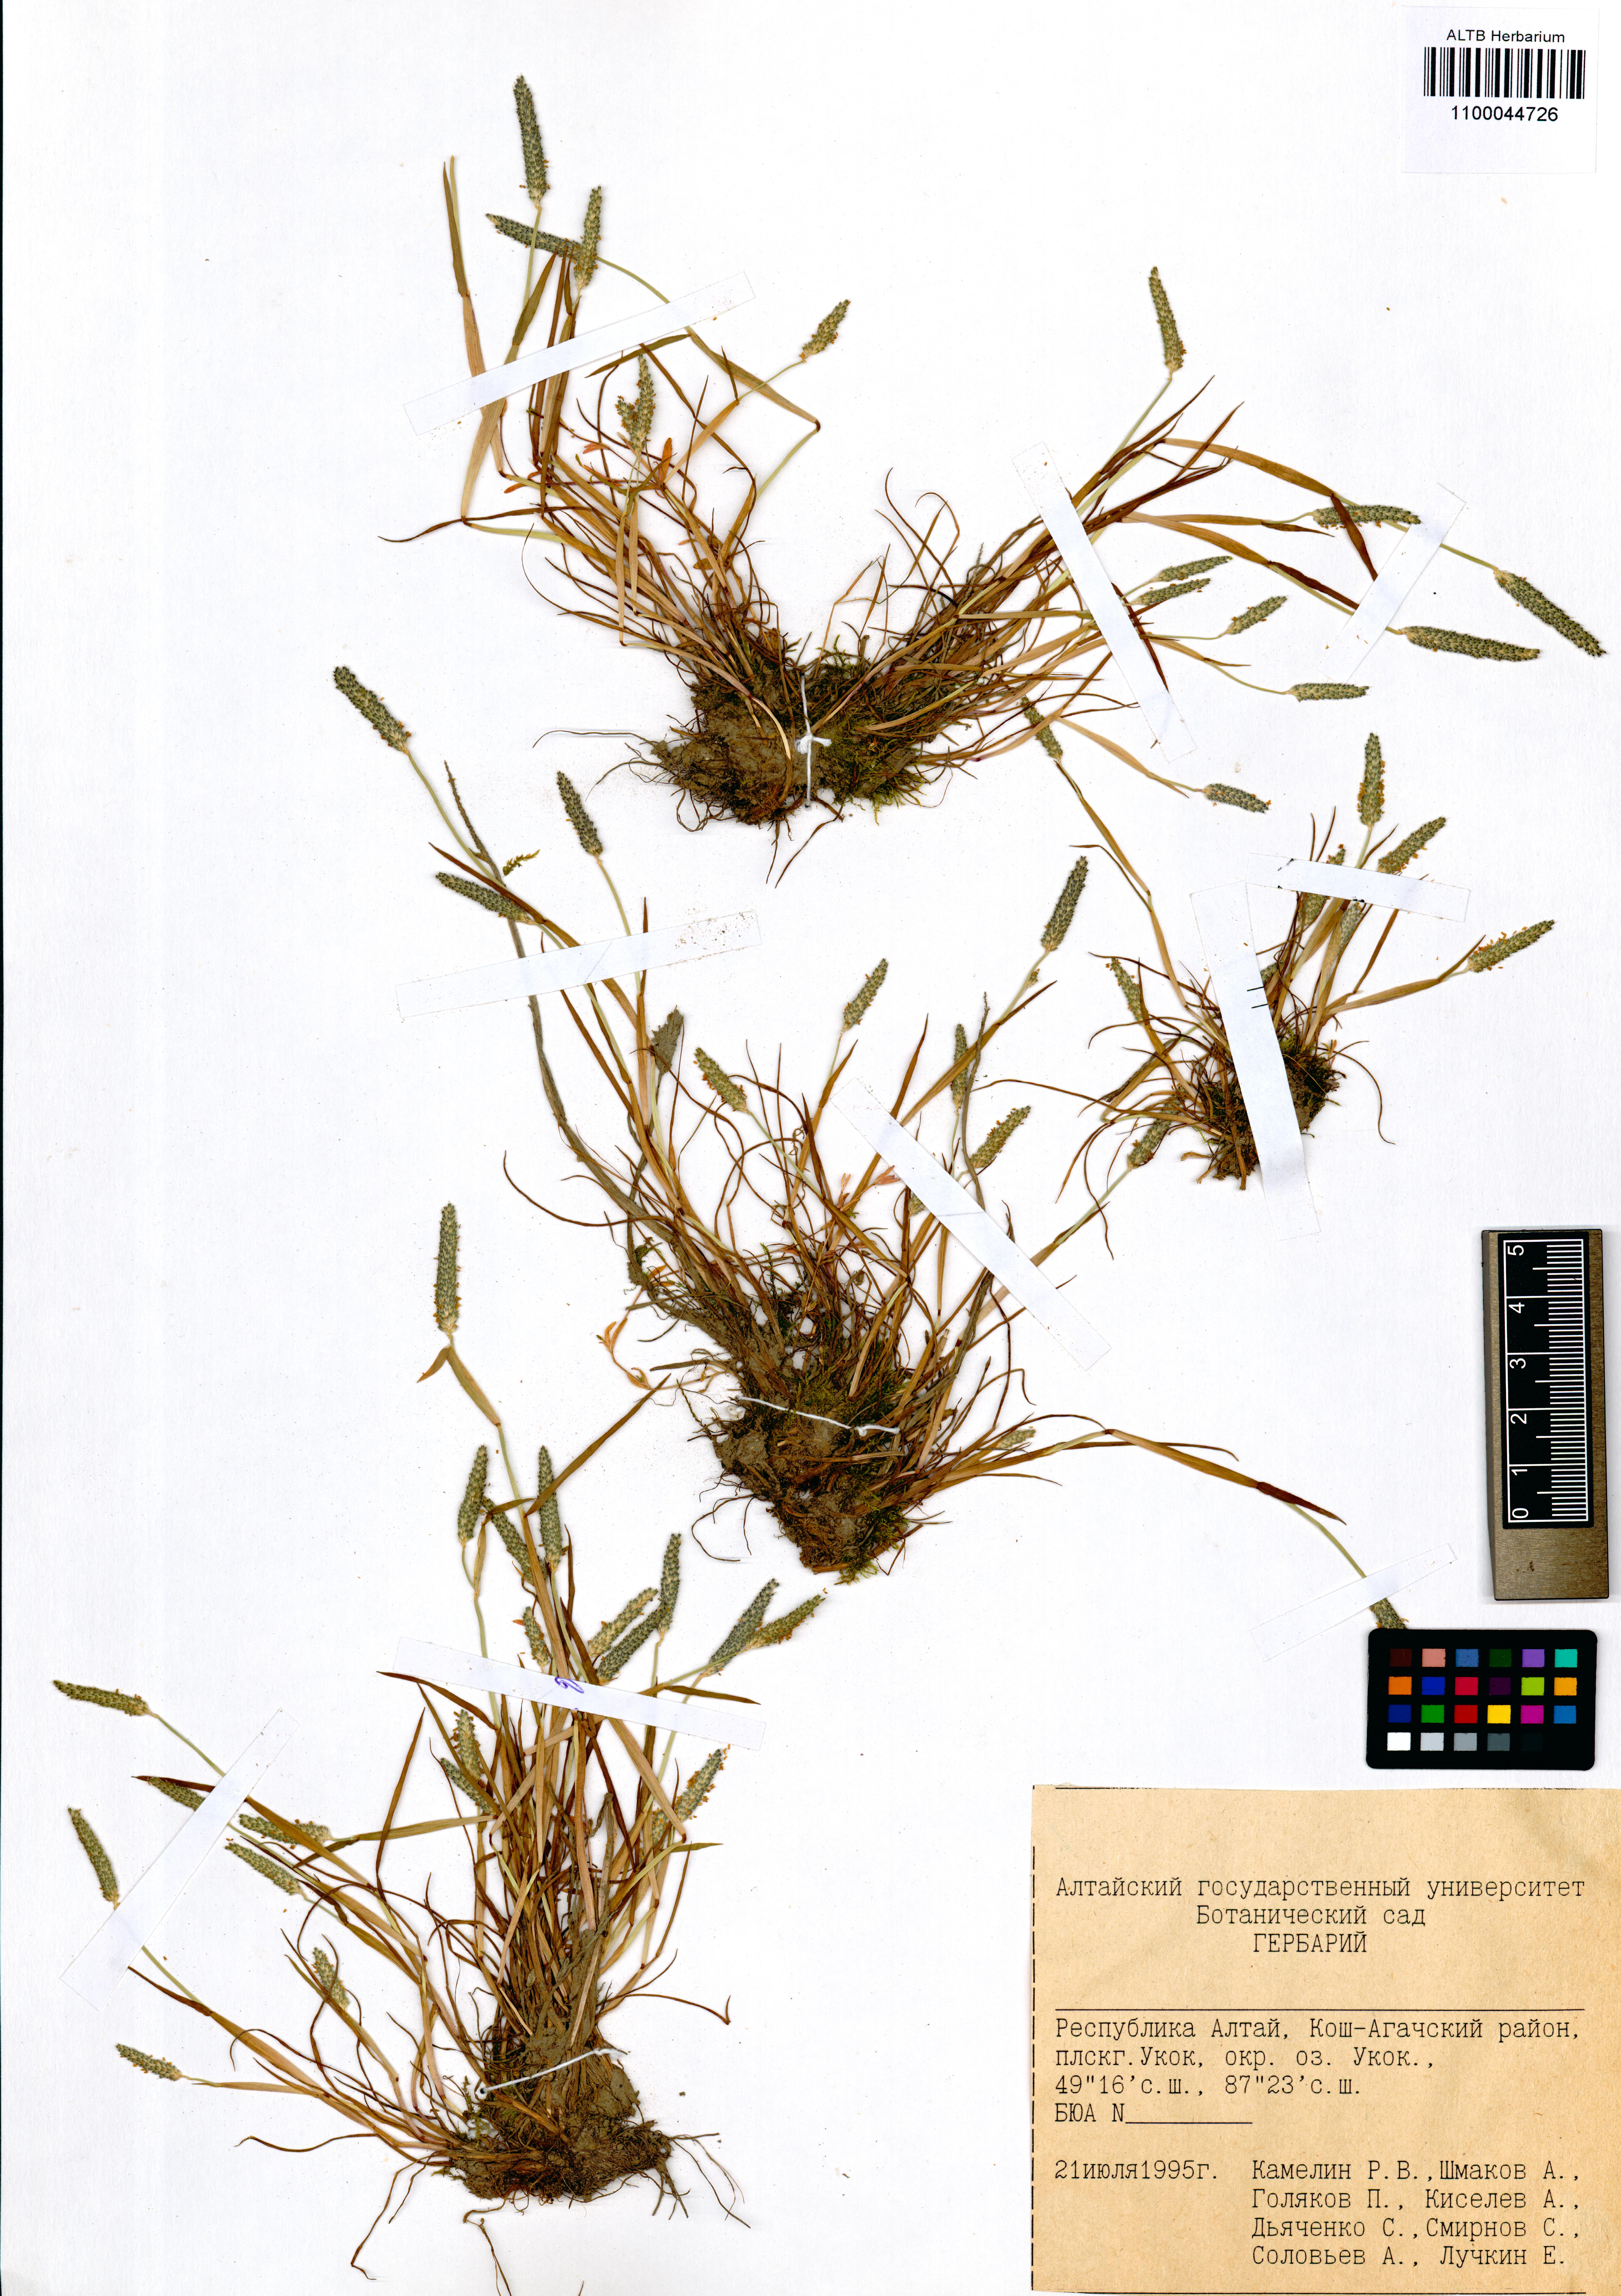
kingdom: Plantae
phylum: Tracheophyta
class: Liliopsida
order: Poales
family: Poaceae
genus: Alopecurus
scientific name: Alopecurus aequalis
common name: Orange foxtail
